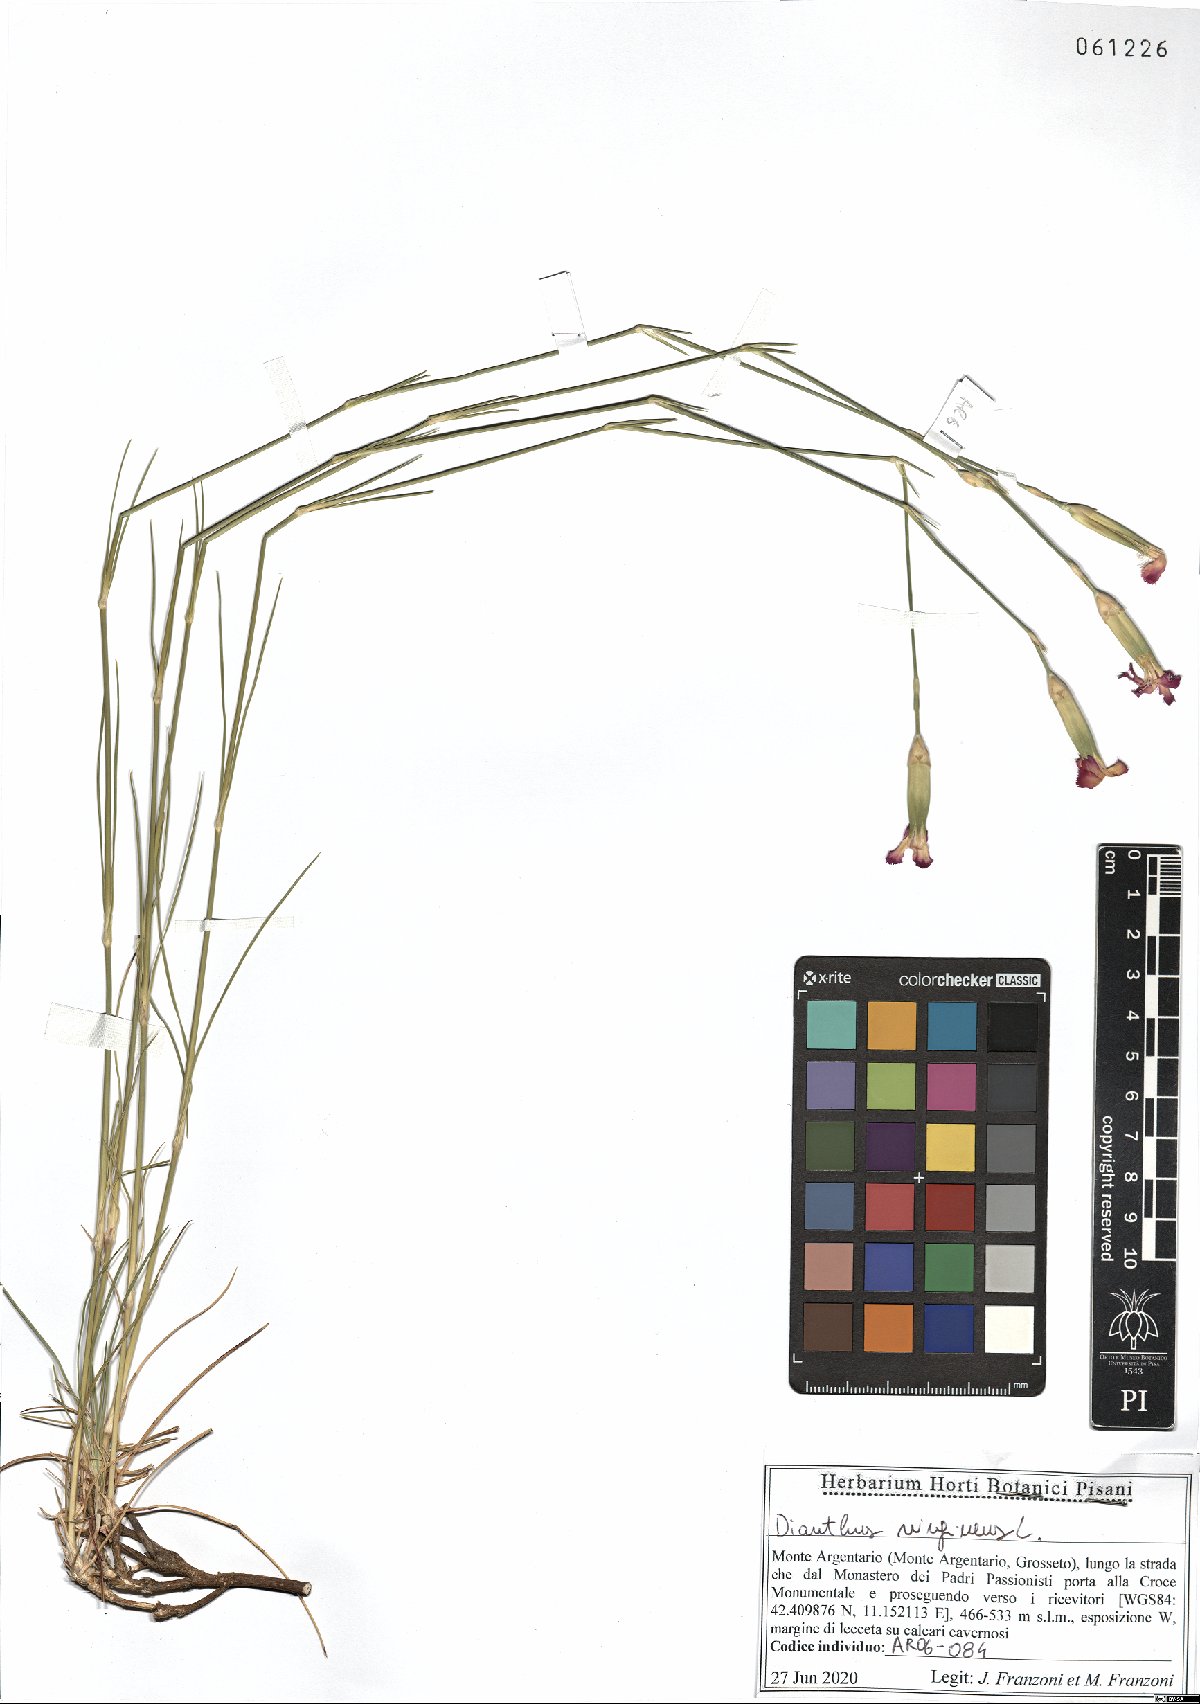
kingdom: Plantae
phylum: Tracheophyta
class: Magnoliopsida
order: Caryophyllales
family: Caryophyllaceae
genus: Dianthus
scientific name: Dianthus virgineus
